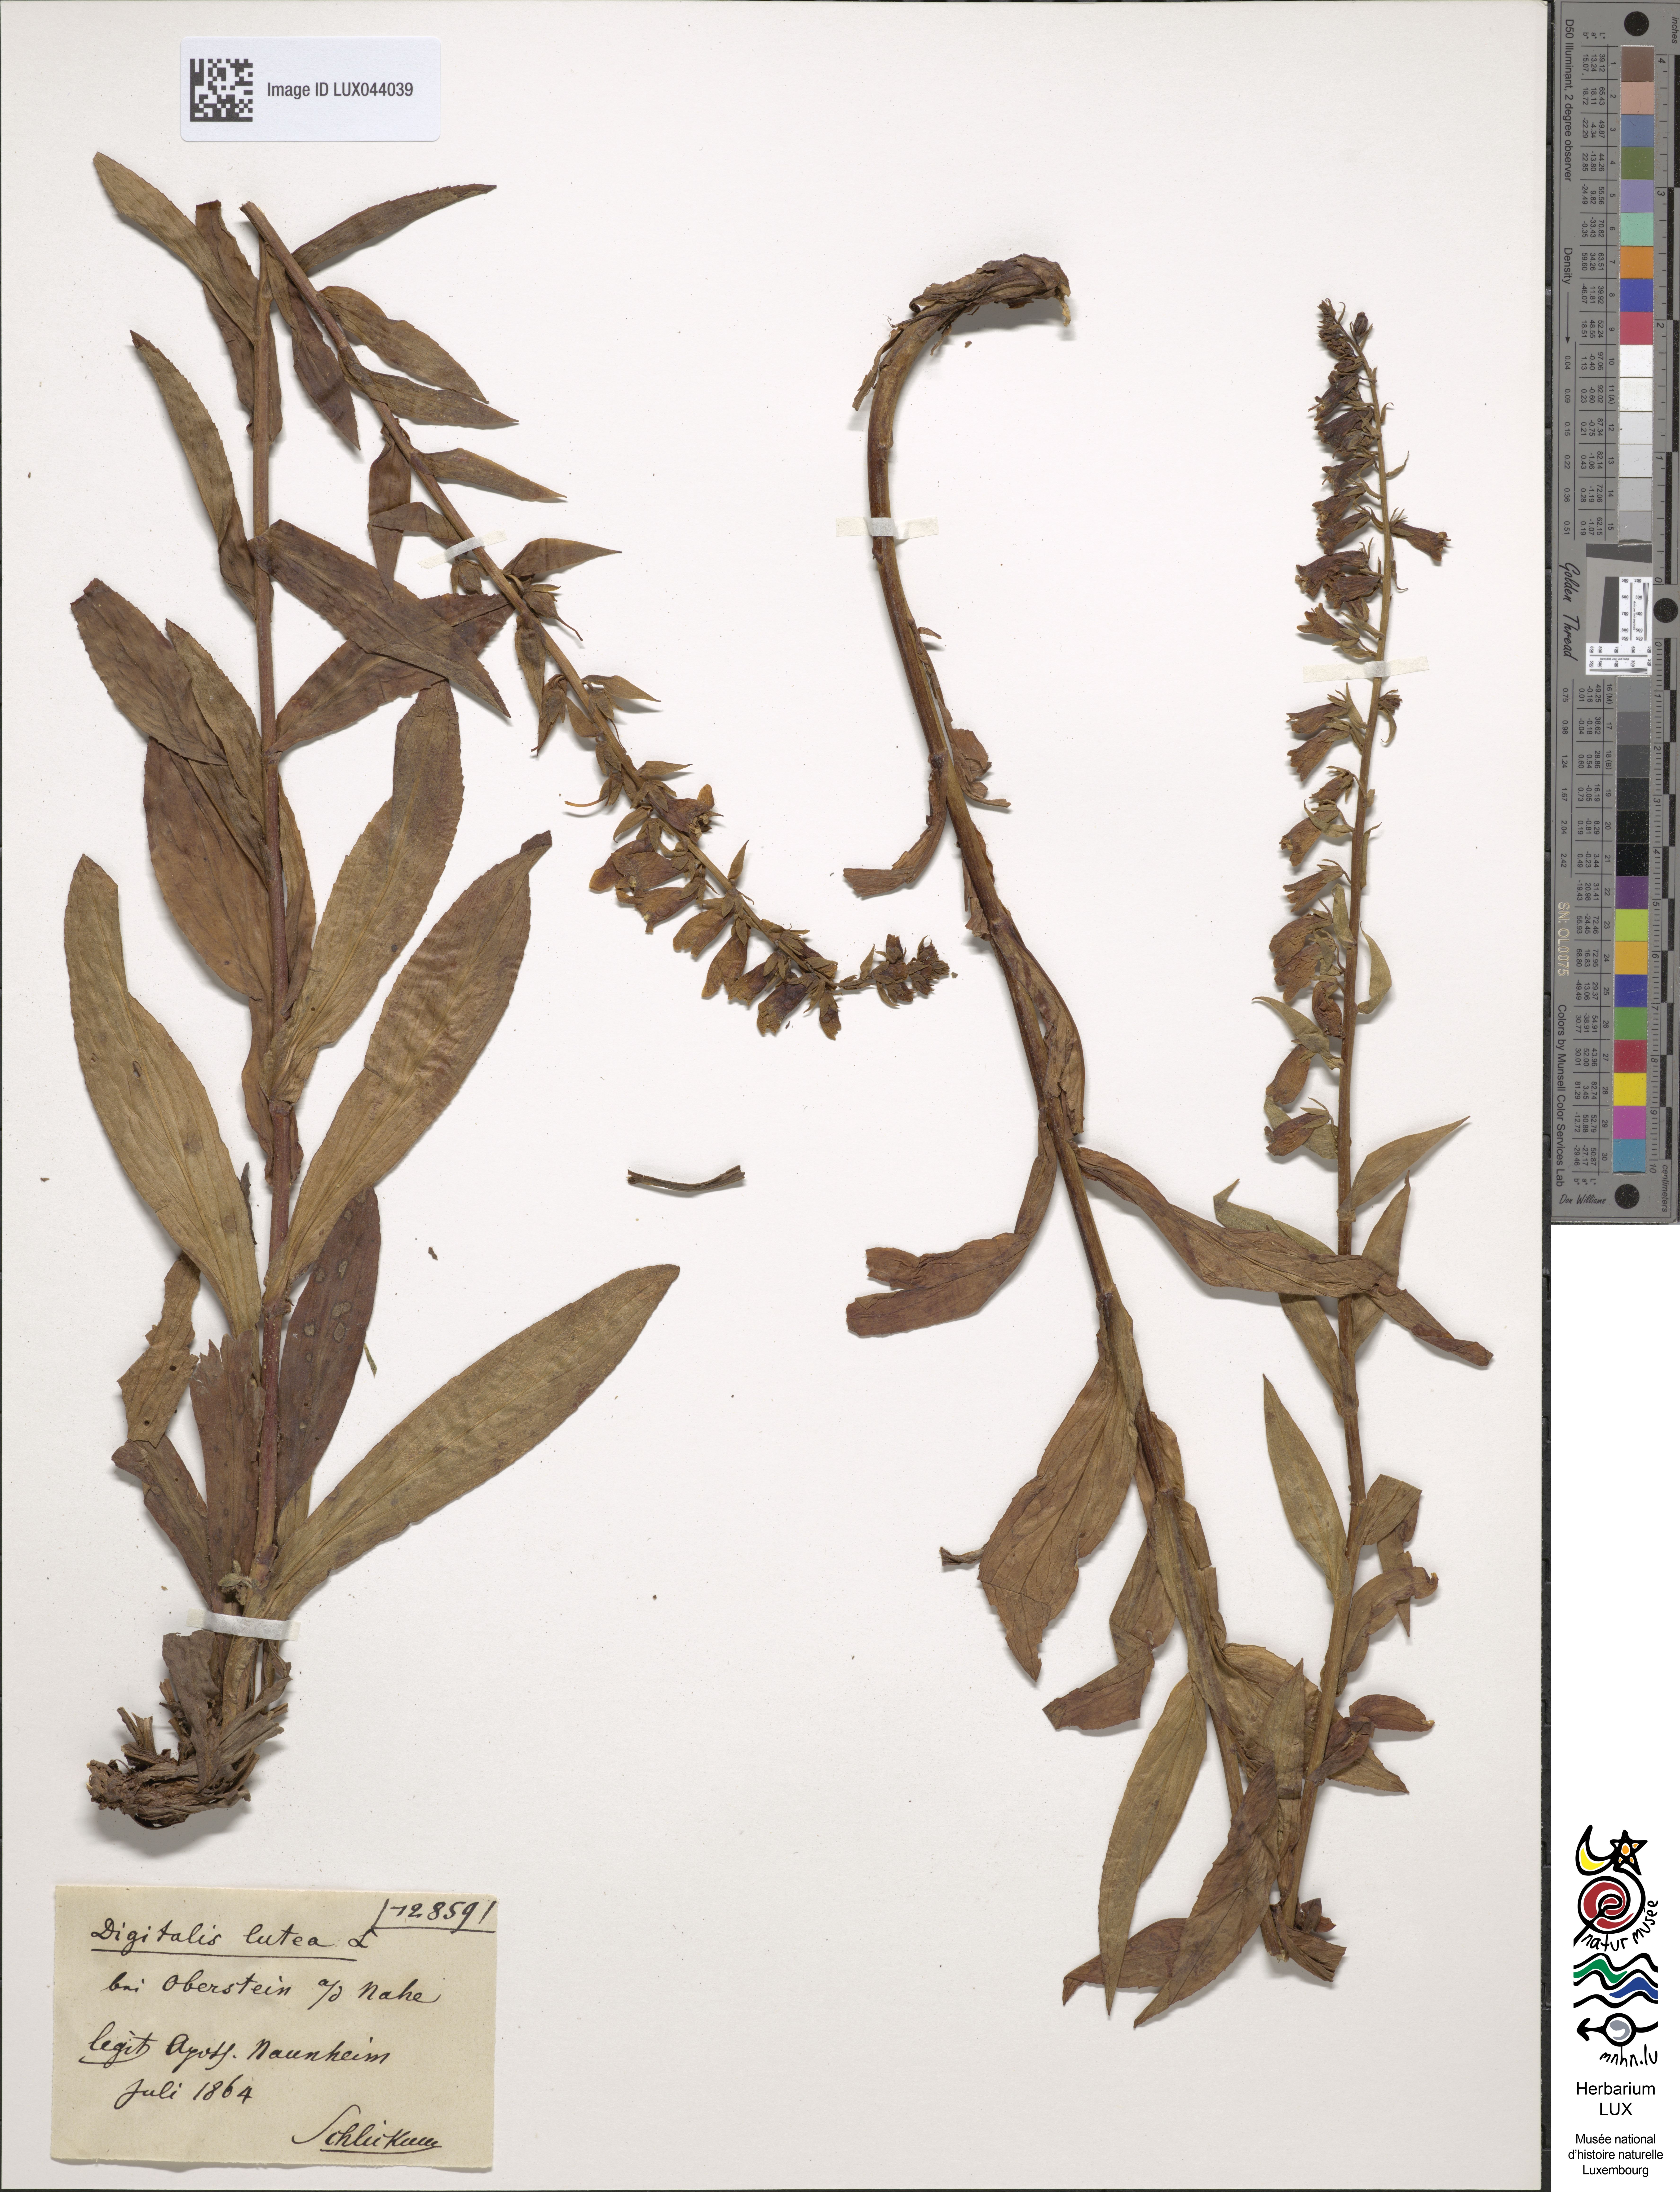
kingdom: Plantae
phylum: Tracheophyta
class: Magnoliopsida
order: Lamiales
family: Plantaginaceae
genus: Digitalis
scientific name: Digitalis lutea
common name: Straw foxglove
